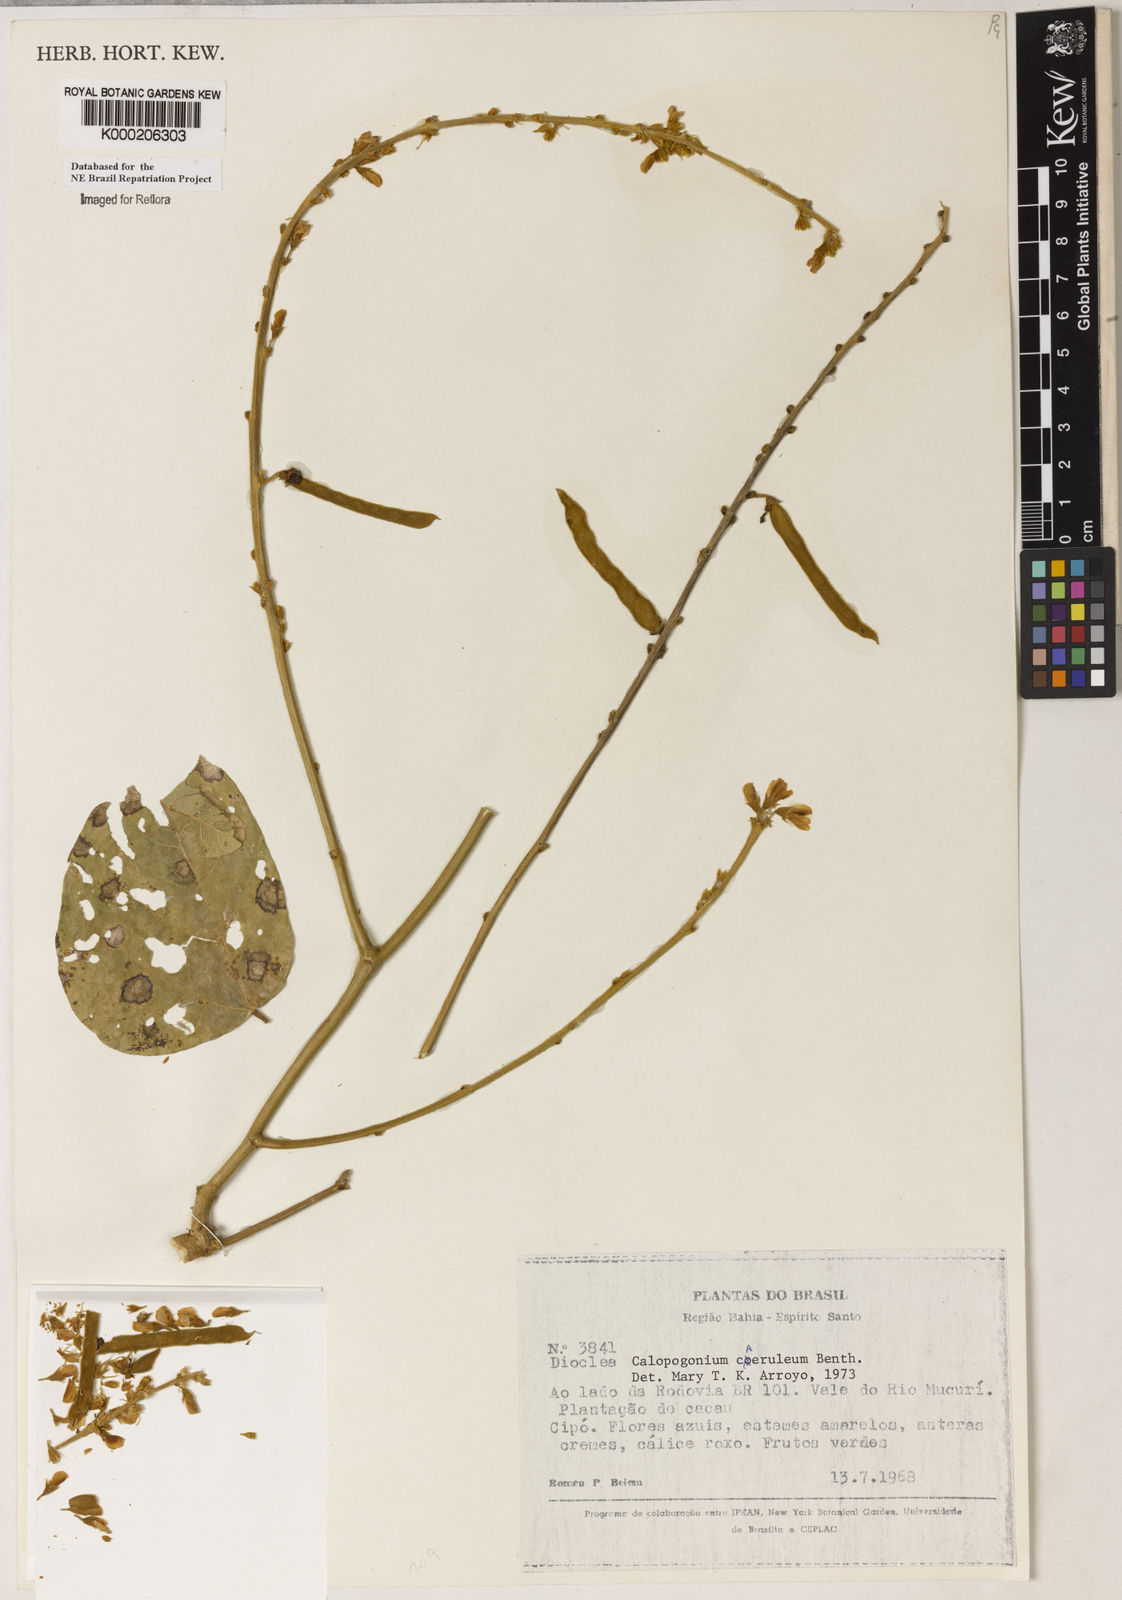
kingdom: Plantae
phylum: Tracheophyta
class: Magnoliopsida
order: Fabales
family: Fabaceae
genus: Calopogonium
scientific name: Calopogonium
